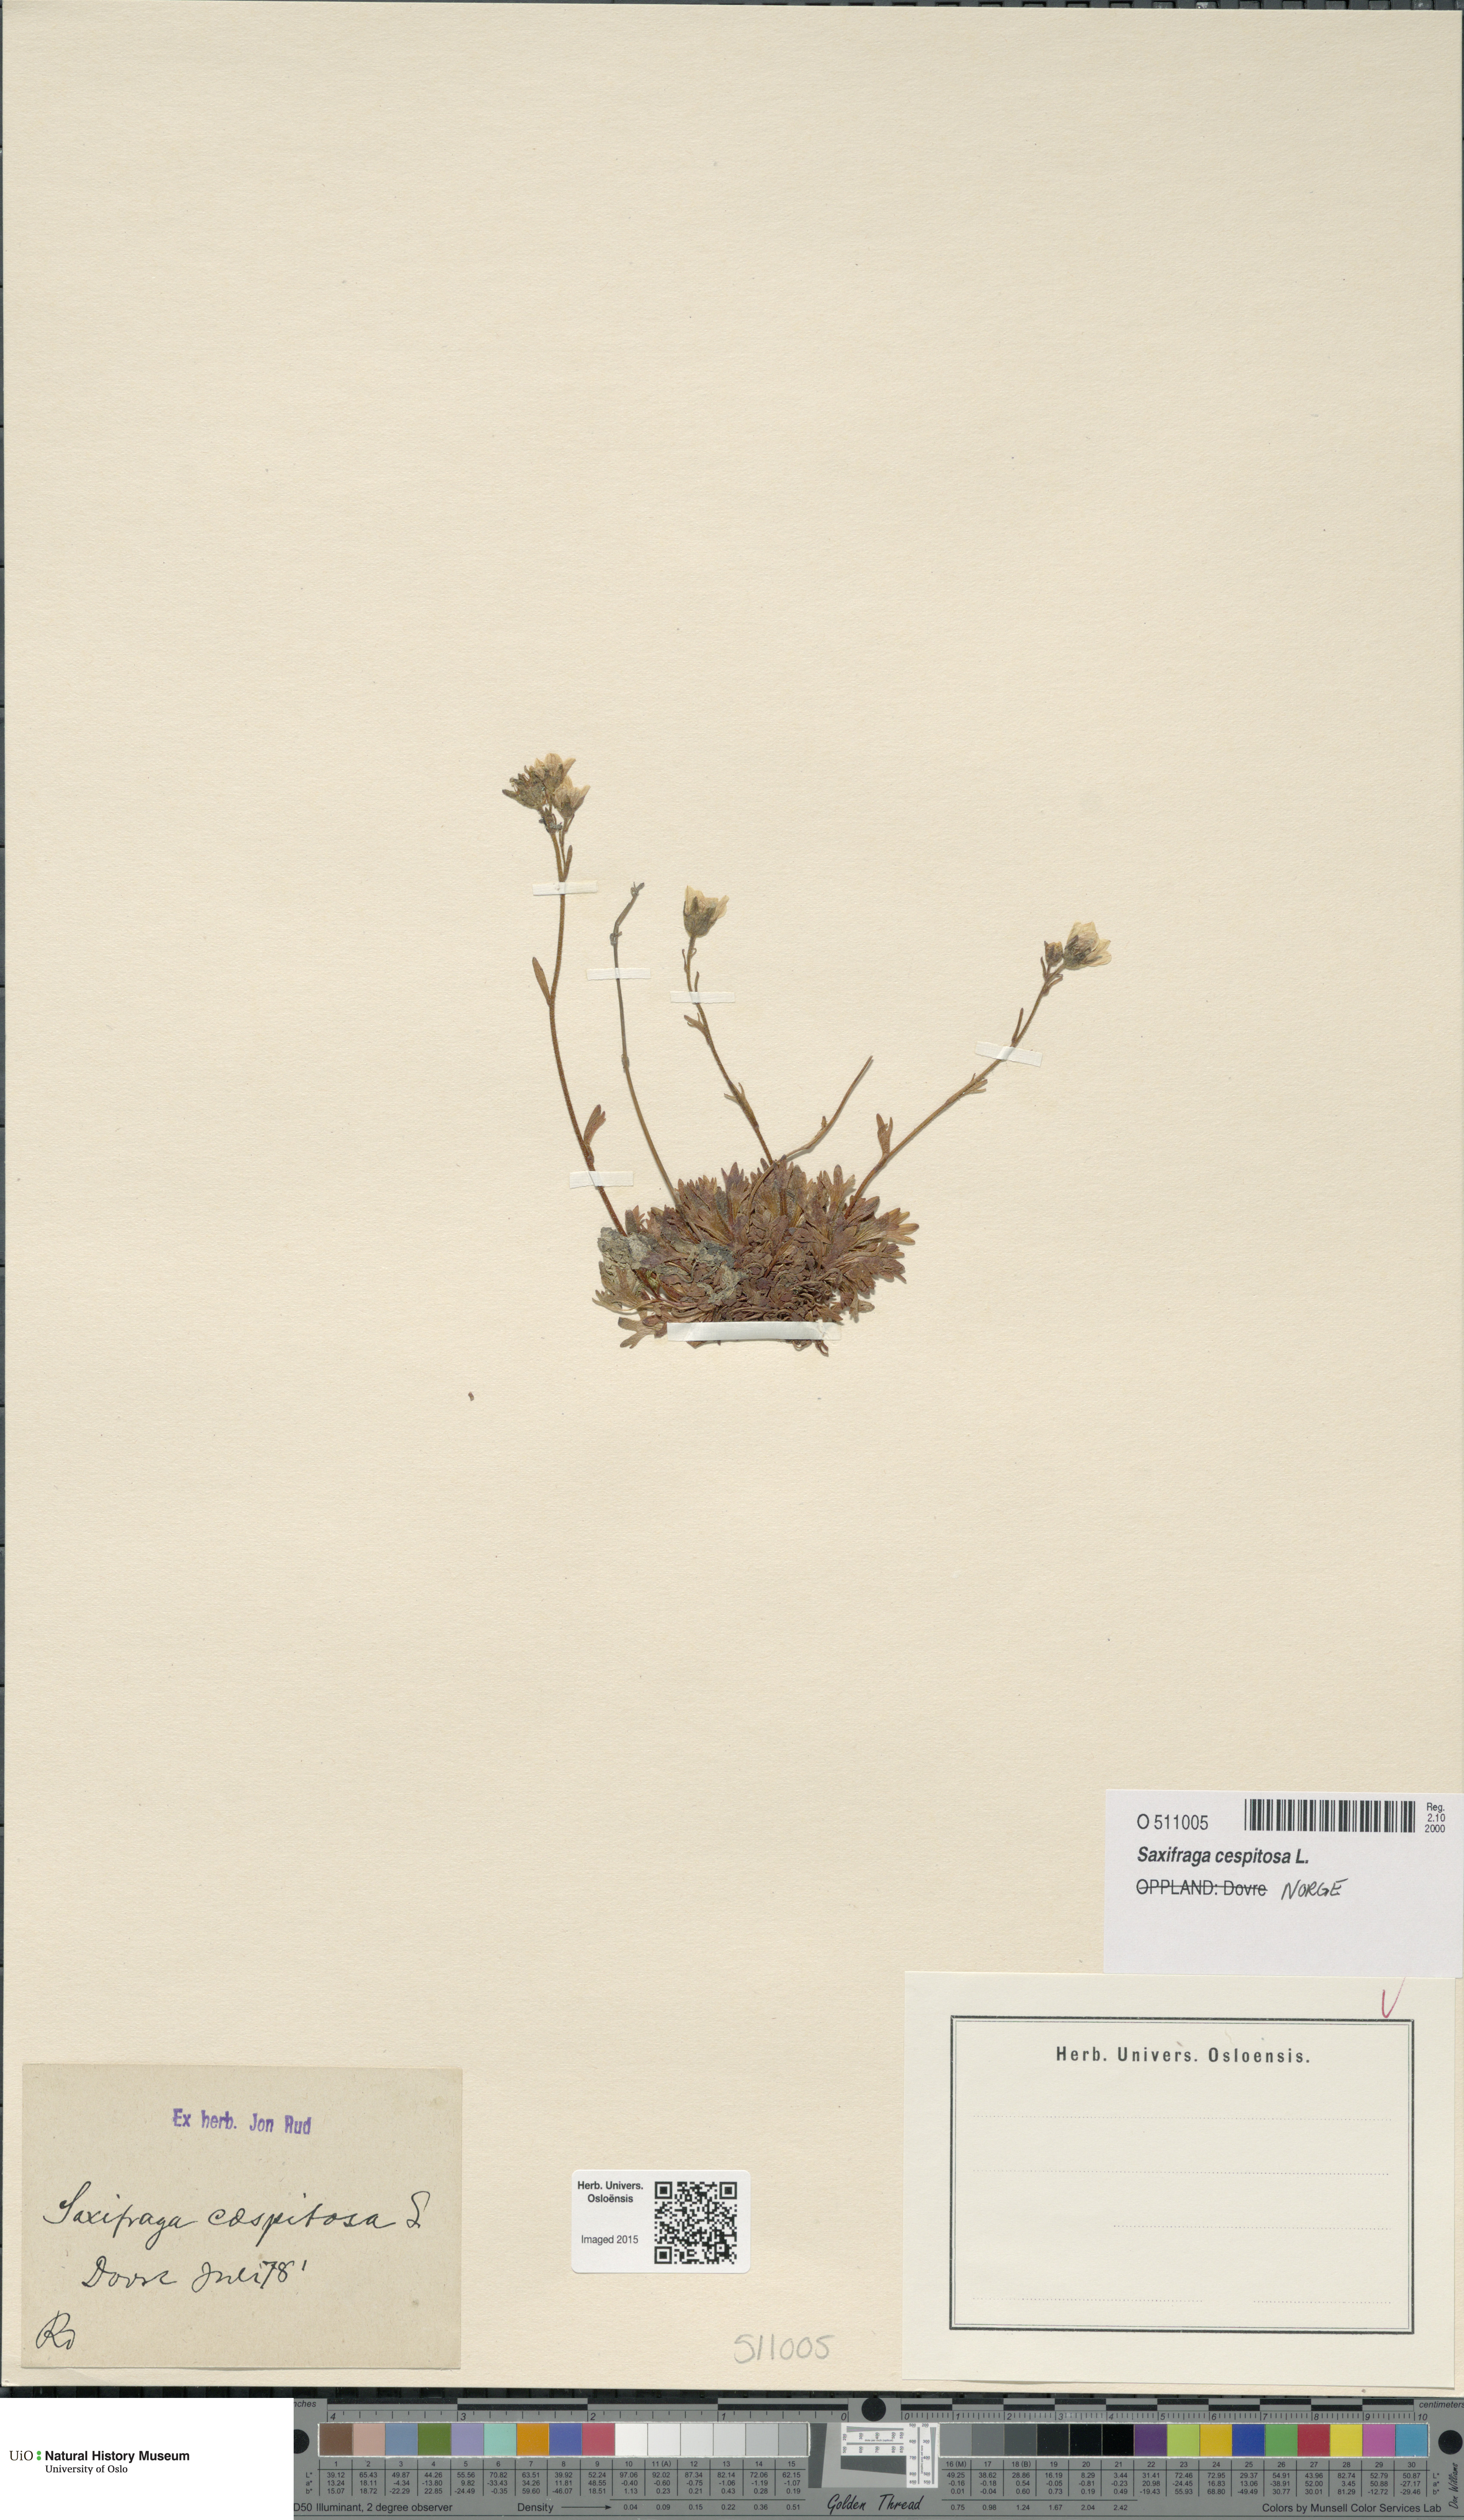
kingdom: Plantae
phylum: Tracheophyta
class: Magnoliopsida
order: Saxifragales
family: Saxifragaceae
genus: Saxifraga
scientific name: Saxifraga cespitosa
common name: Tufted saxifrage
